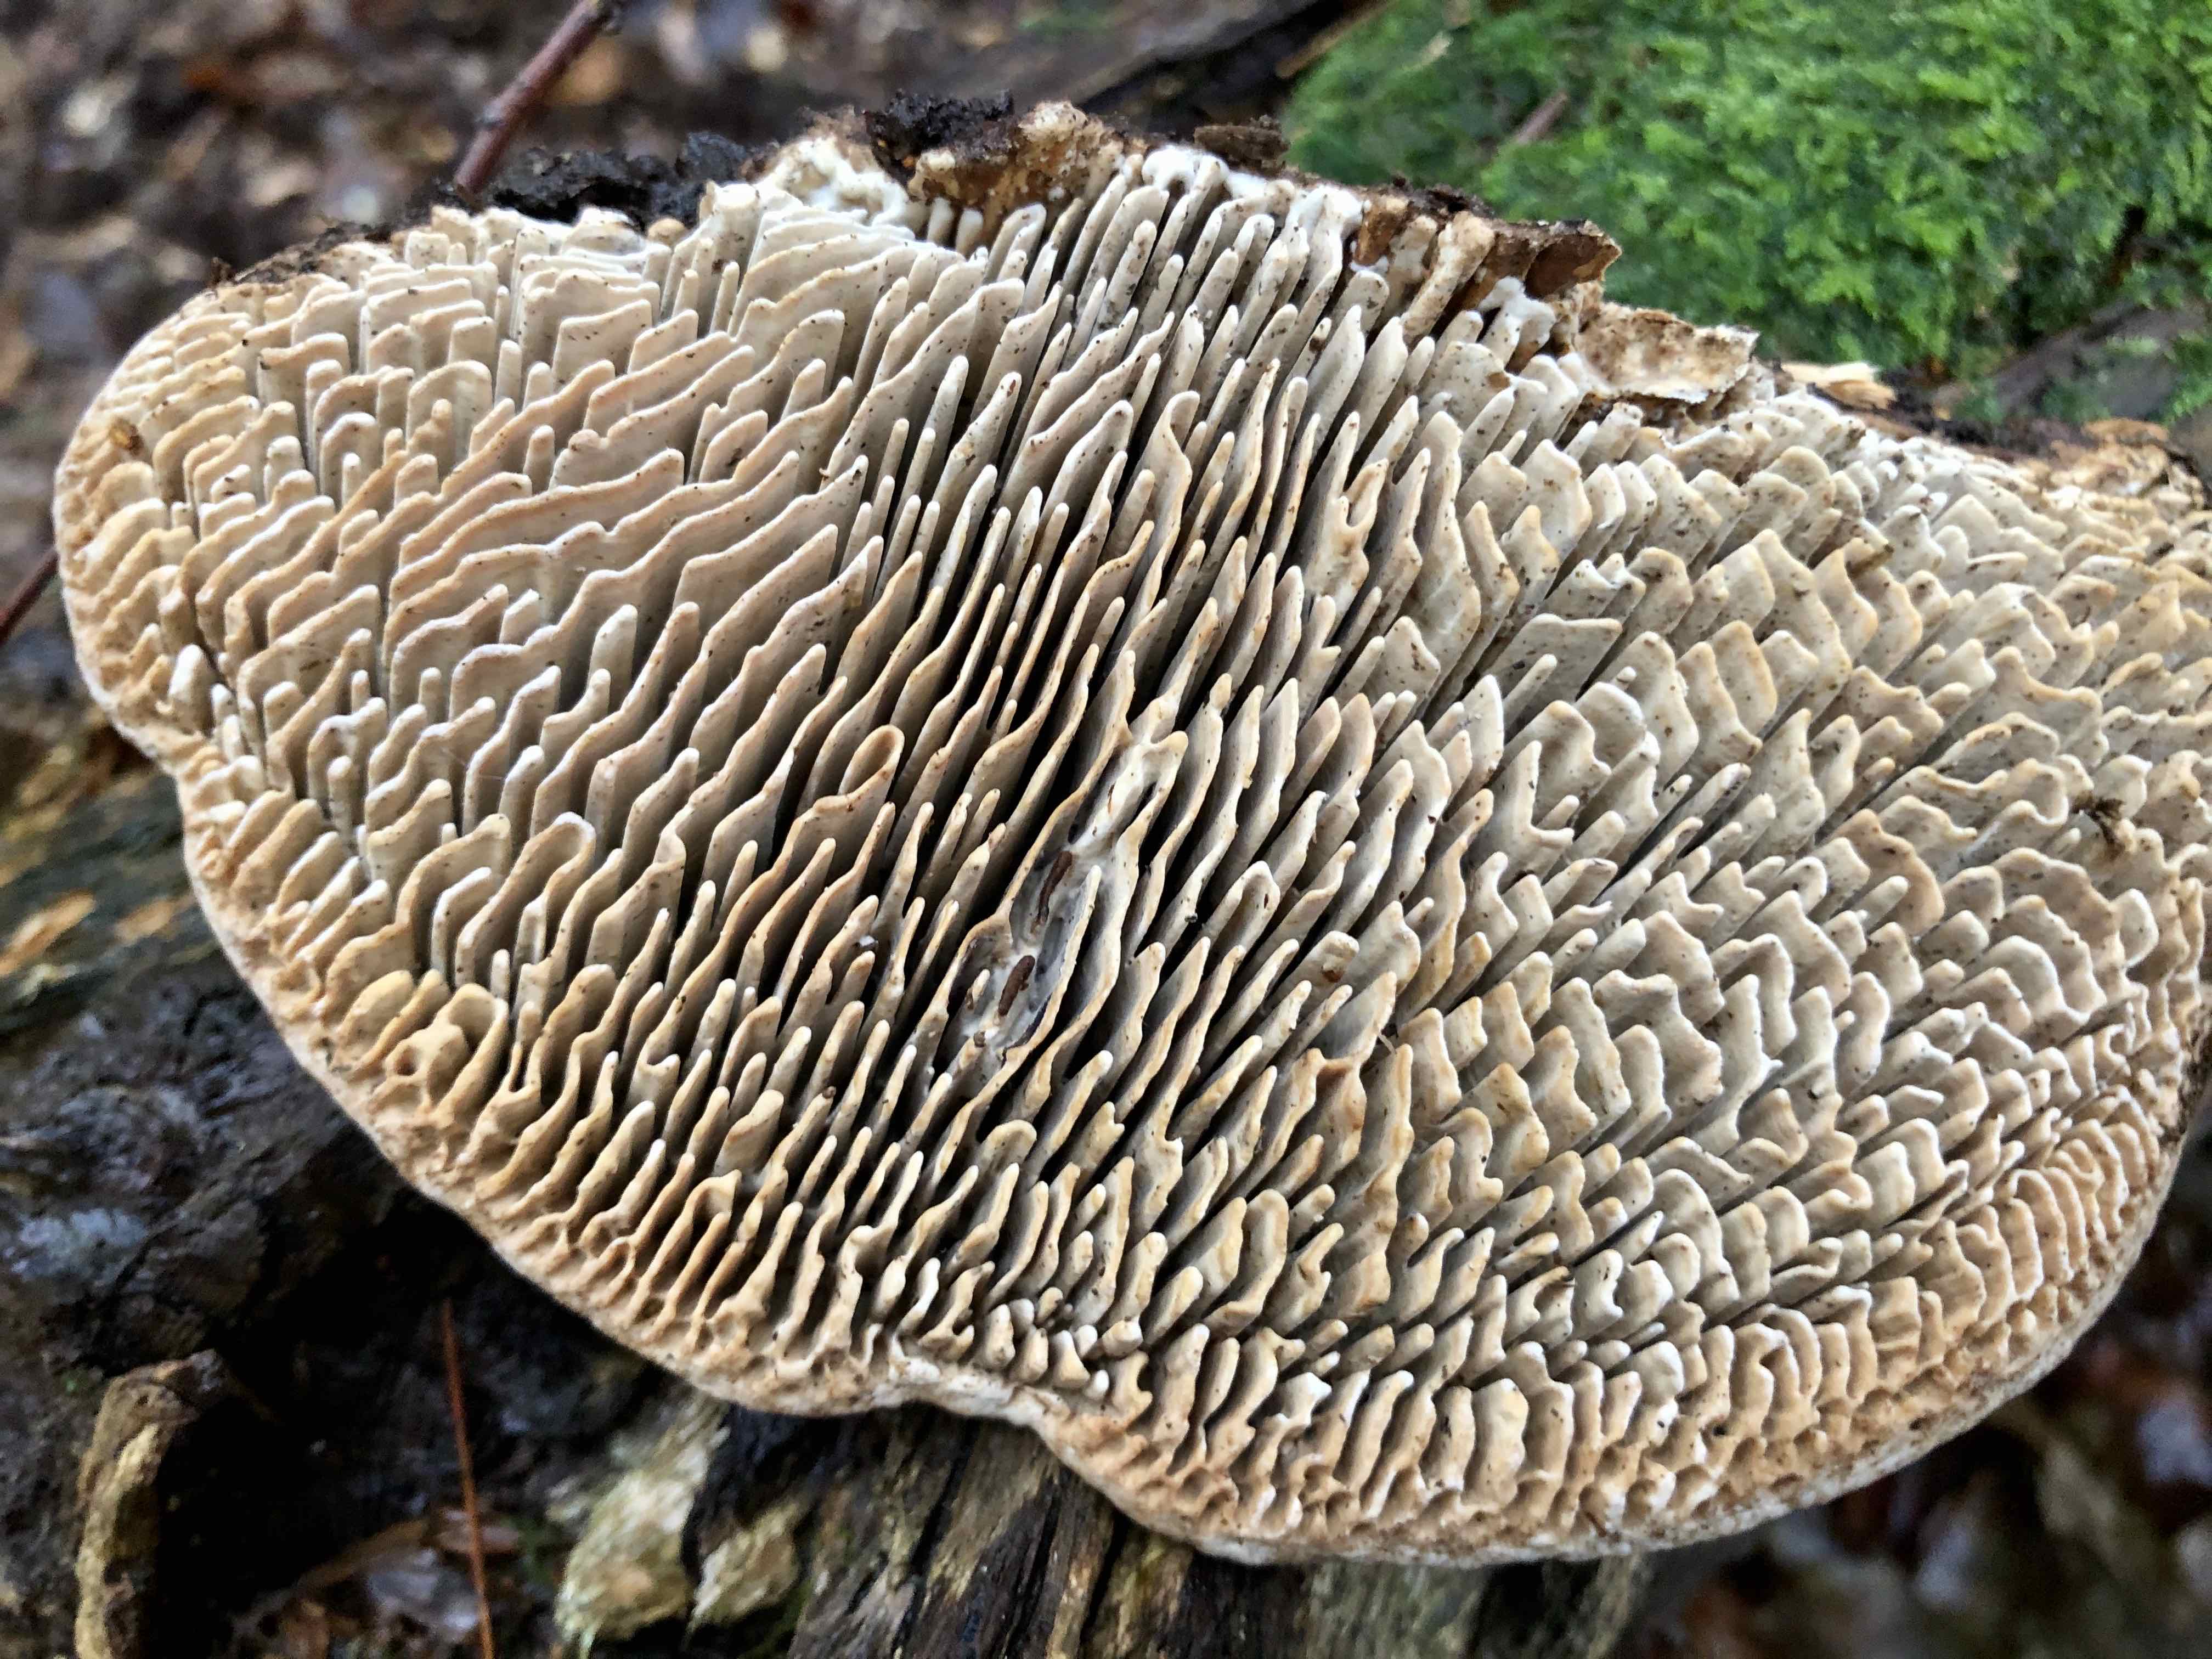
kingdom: Fungi
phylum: Basidiomycota
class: Agaricomycetes
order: Polyporales
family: Fomitopsidaceae
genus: Daedalea
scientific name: Daedalea quercina
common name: ege-labyrintsvamp
